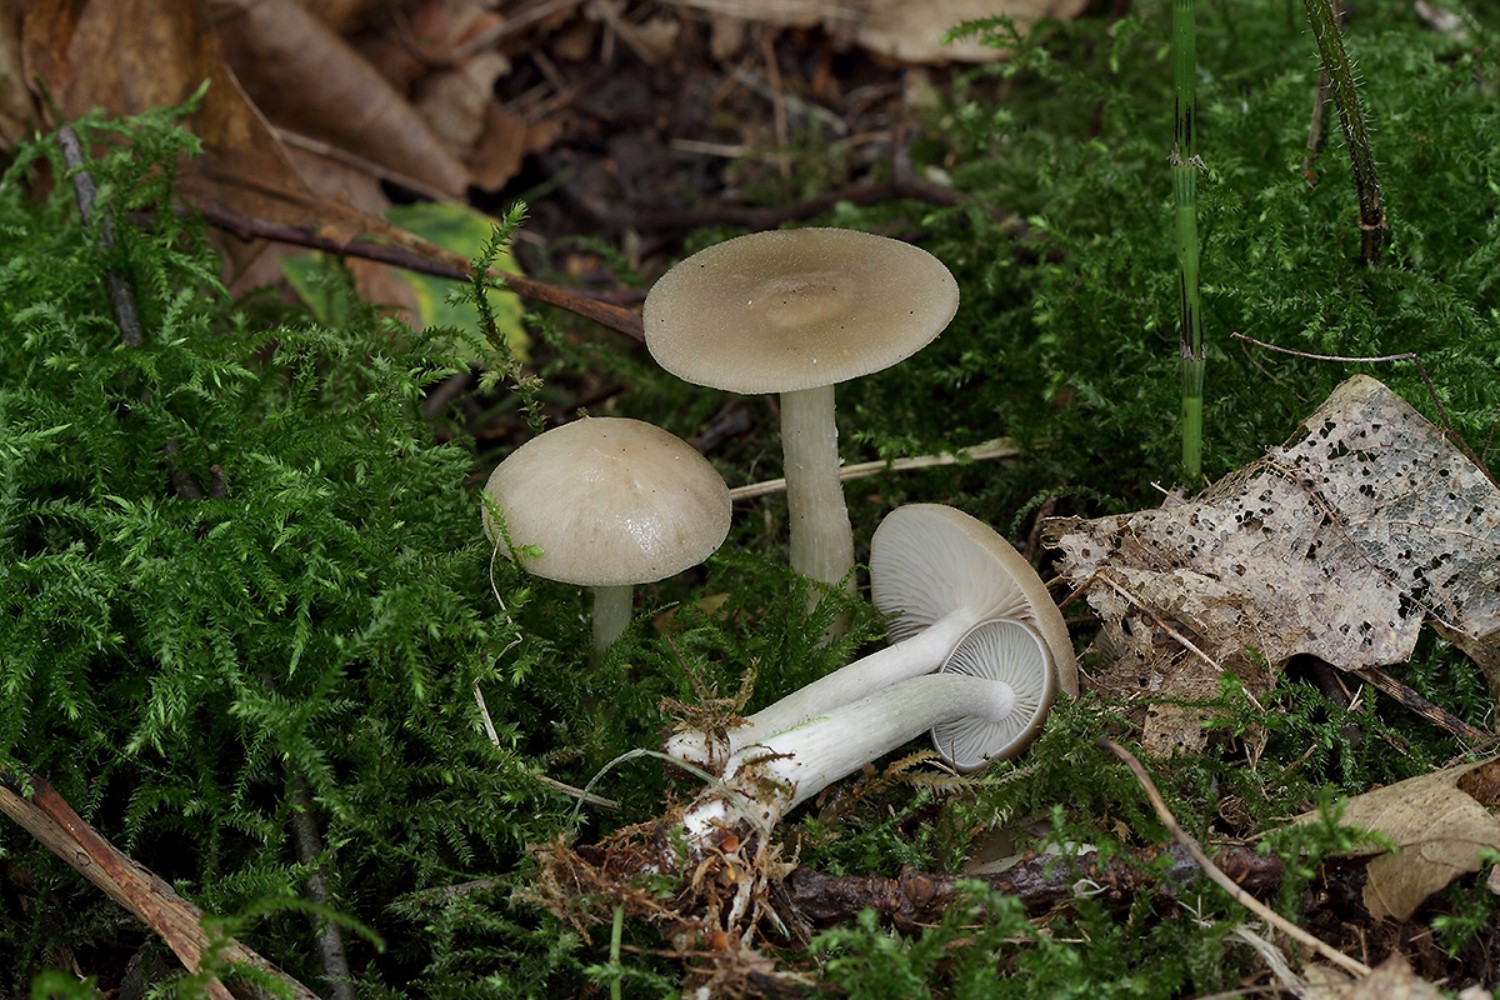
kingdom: Fungi
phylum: Basidiomycota
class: Agaricomycetes
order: Agaricales
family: Entolomataceae
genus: Entoloma
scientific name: Entoloma rhodopolium
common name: skov-rødblad
